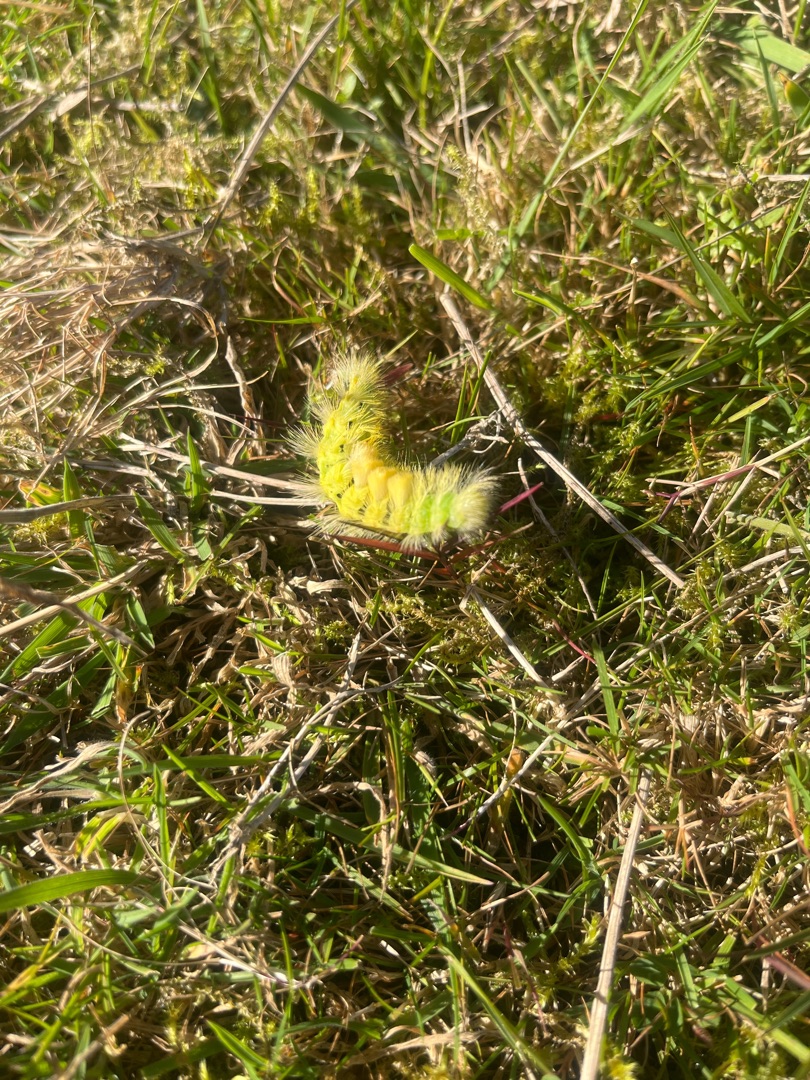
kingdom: Animalia
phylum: Arthropoda
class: Insecta
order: Lepidoptera
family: Erebidae
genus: Calliteara
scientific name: Calliteara pudibunda
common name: Bøgenonne
